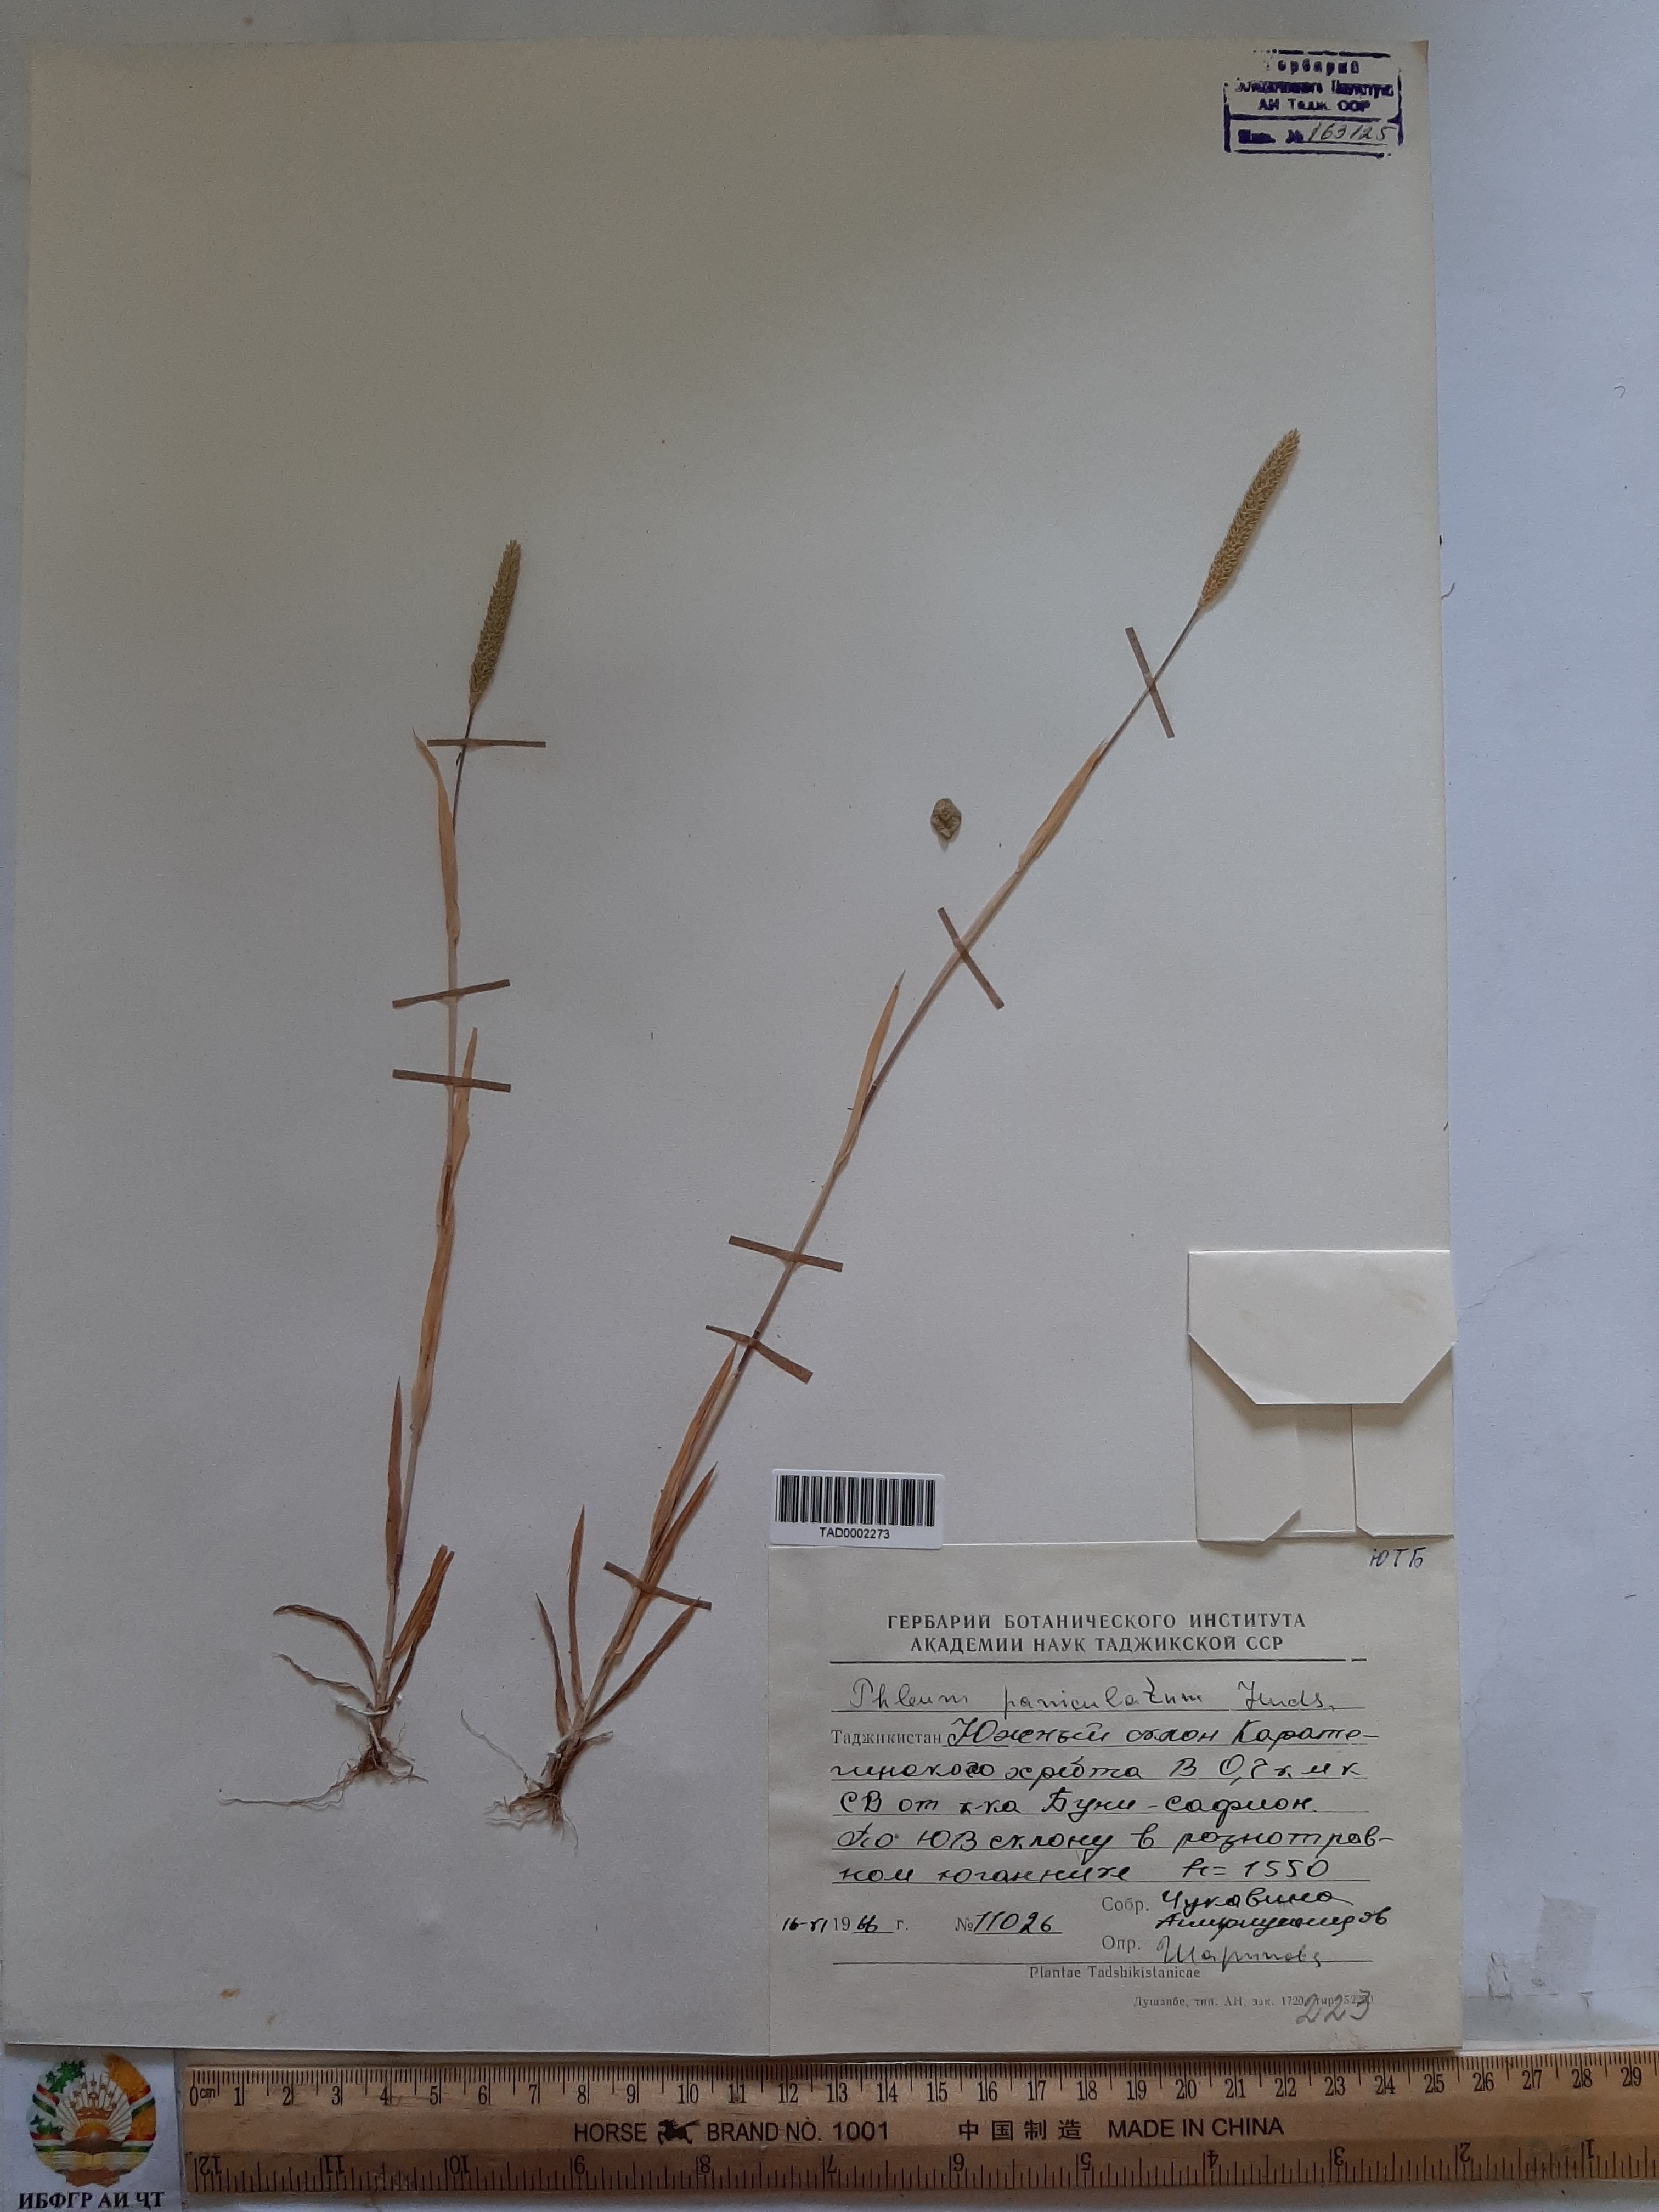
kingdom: Plantae
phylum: Tracheophyta
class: Liliopsida
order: Poales
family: Poaceae
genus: Phleum
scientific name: Phleum paniculatum
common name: British timothy
